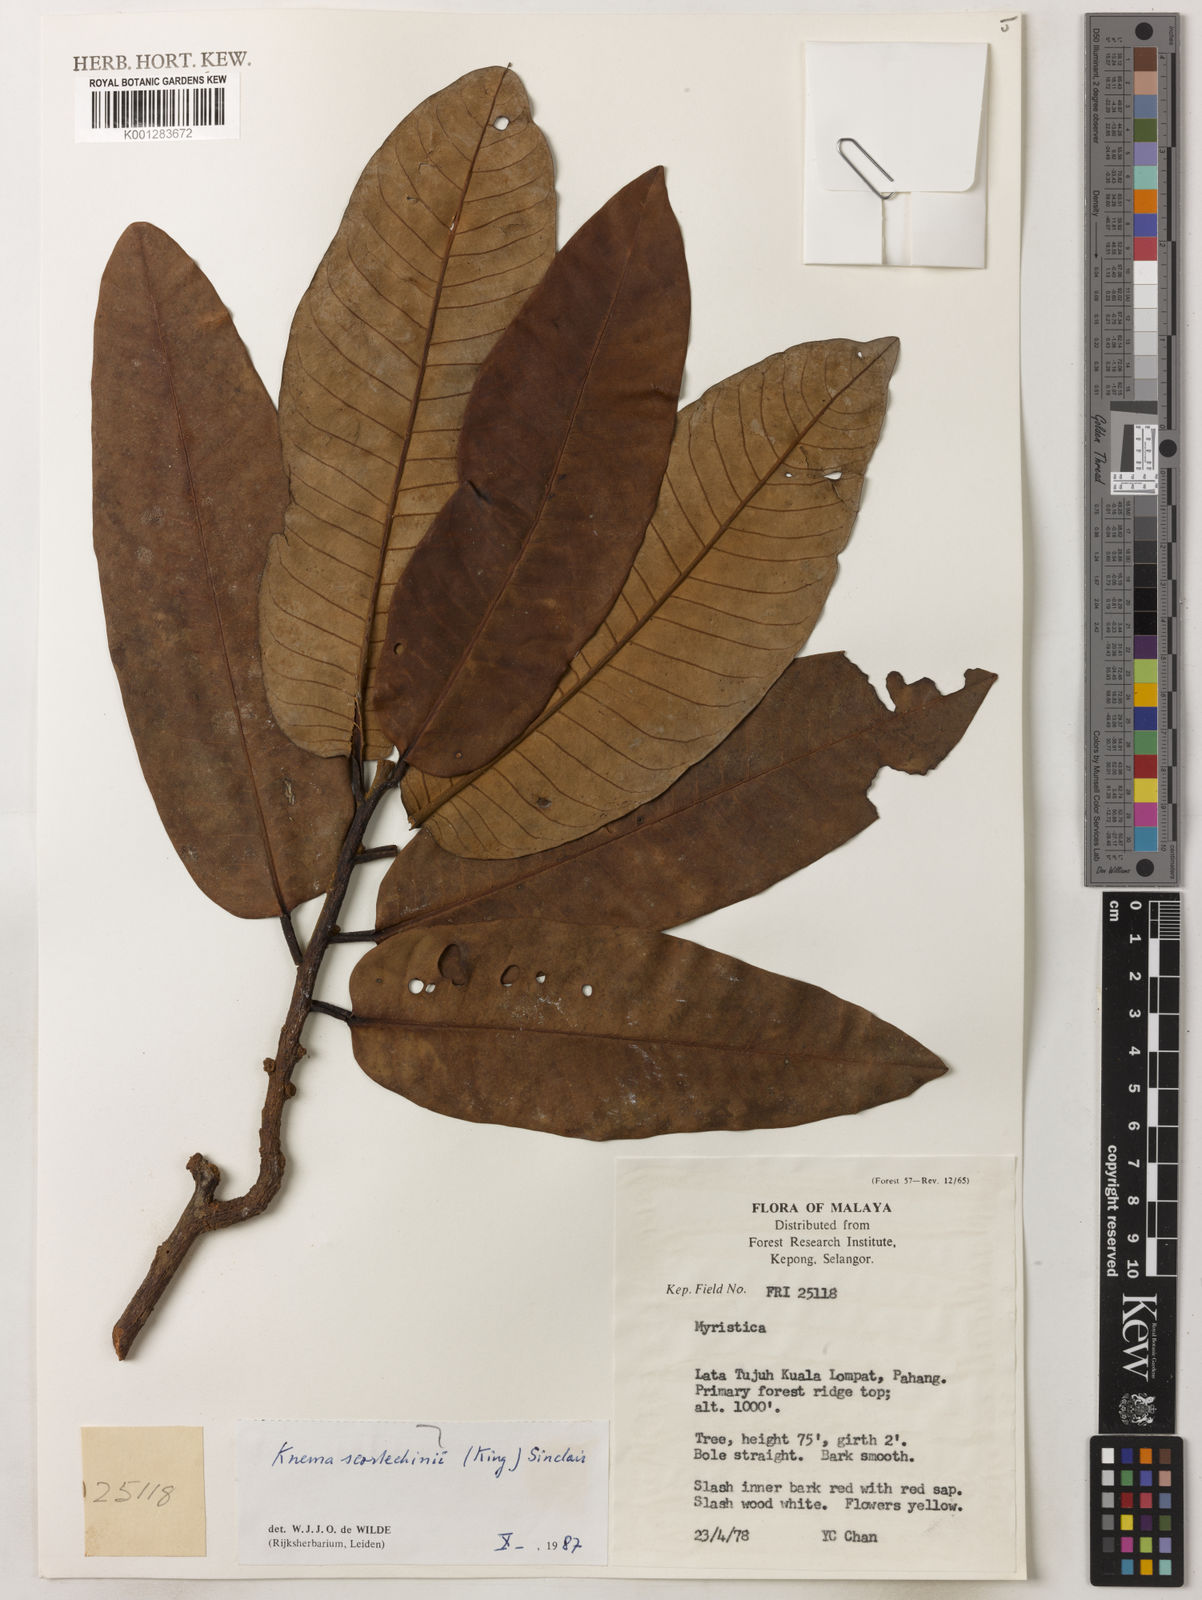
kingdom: Plantae
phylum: Tracheophyta
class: Magnoliopsida
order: Magnoliales
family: Myristicaceae
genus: Knema
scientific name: Knema scortechinii
